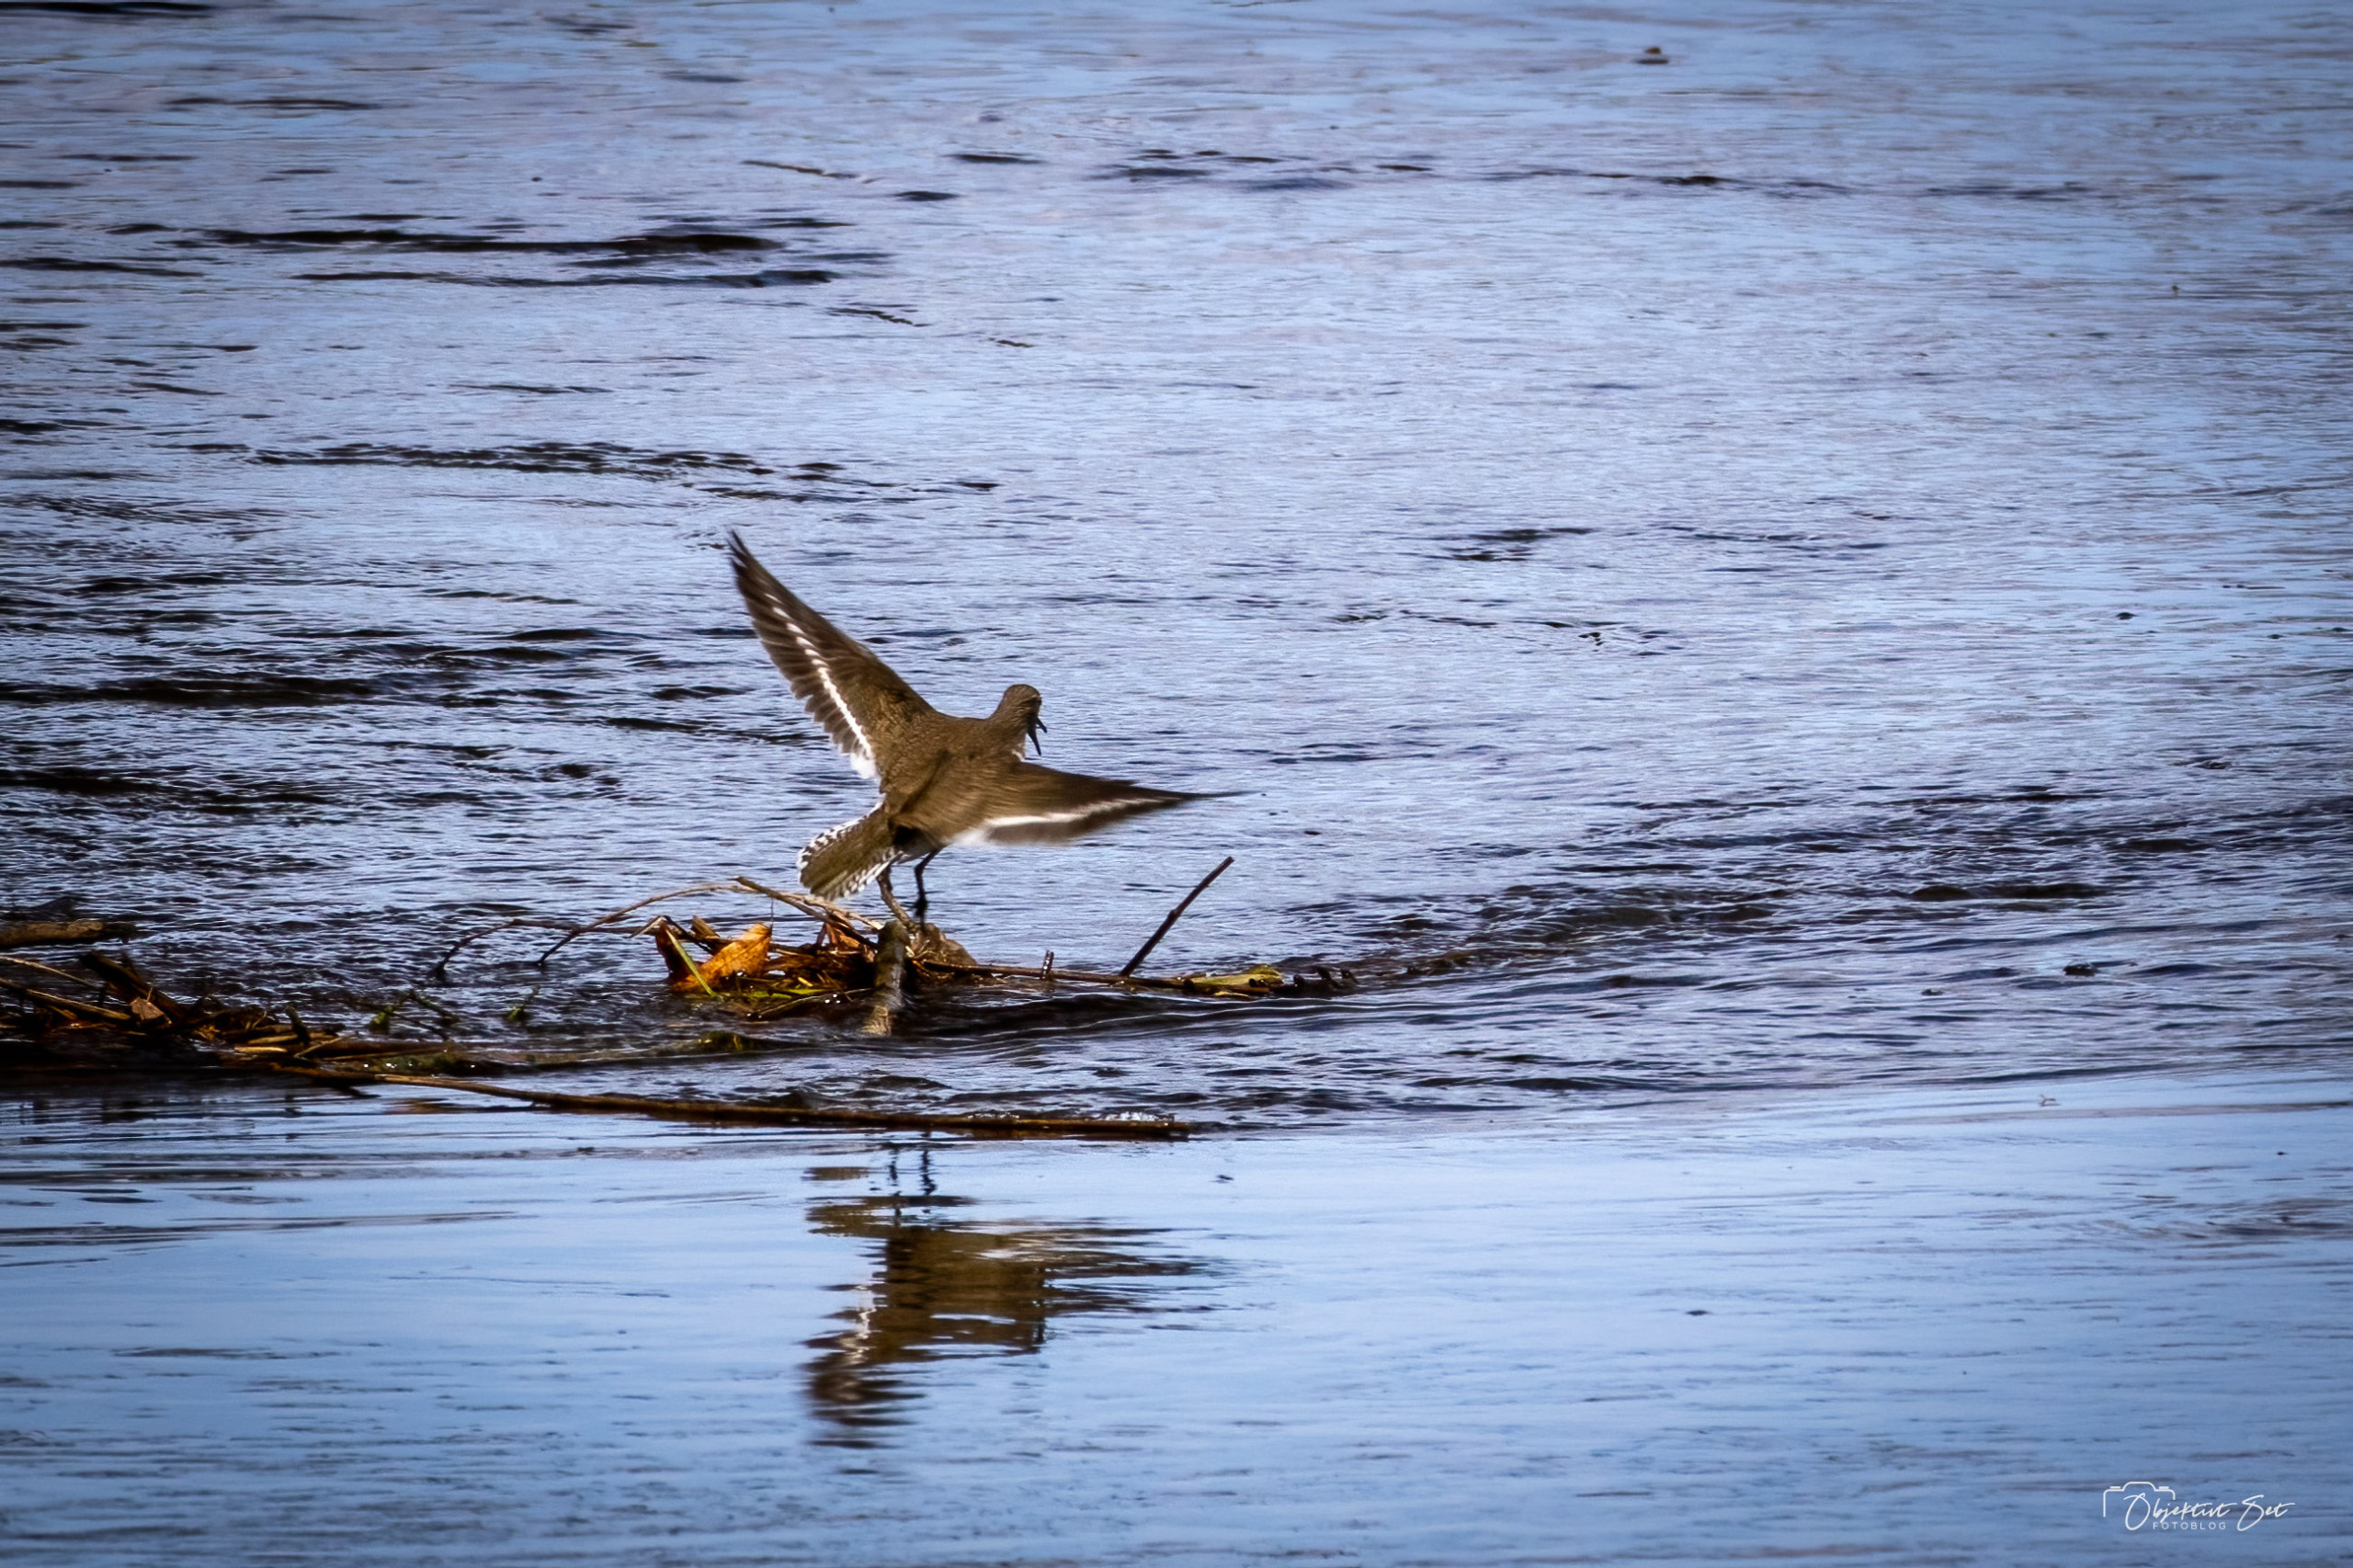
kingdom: Animalia
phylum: Chordata
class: Aves
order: Charadriiformes
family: Scolopacidae
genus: Actitis
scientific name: Actitis hypoleucos
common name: Mudderklire
